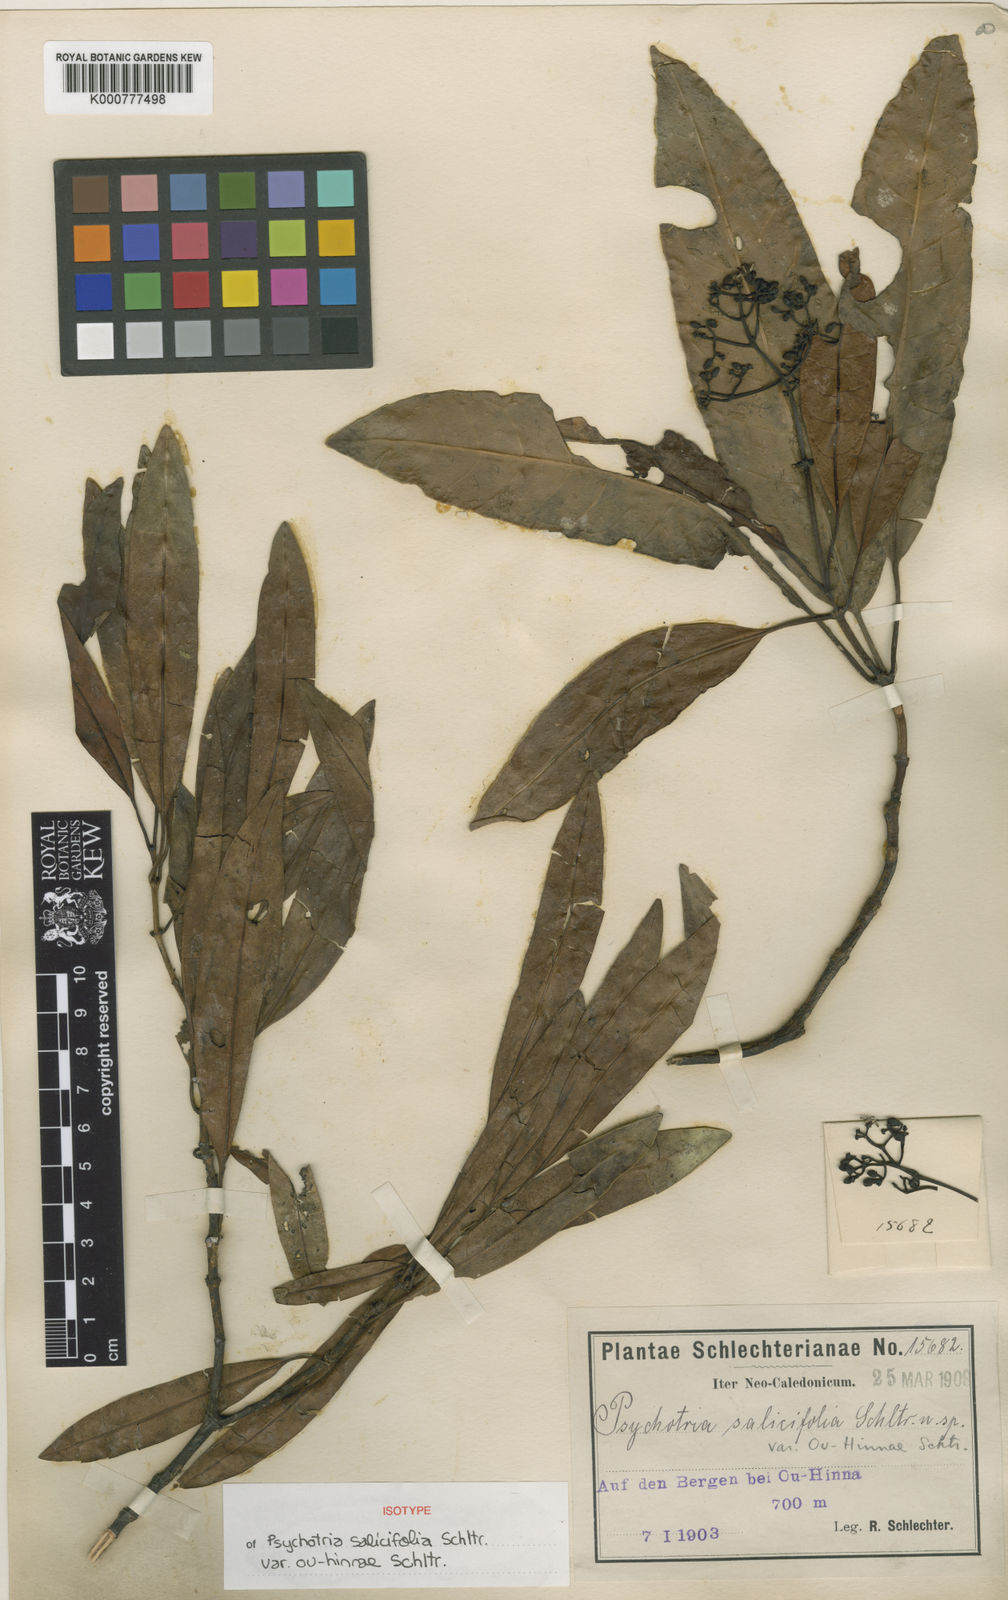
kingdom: Plantae
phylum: Tracheophyta
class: Magnoliopsida
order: Gentianales
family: Rubiaceae
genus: Psychotria
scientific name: Psychotria baillonii
